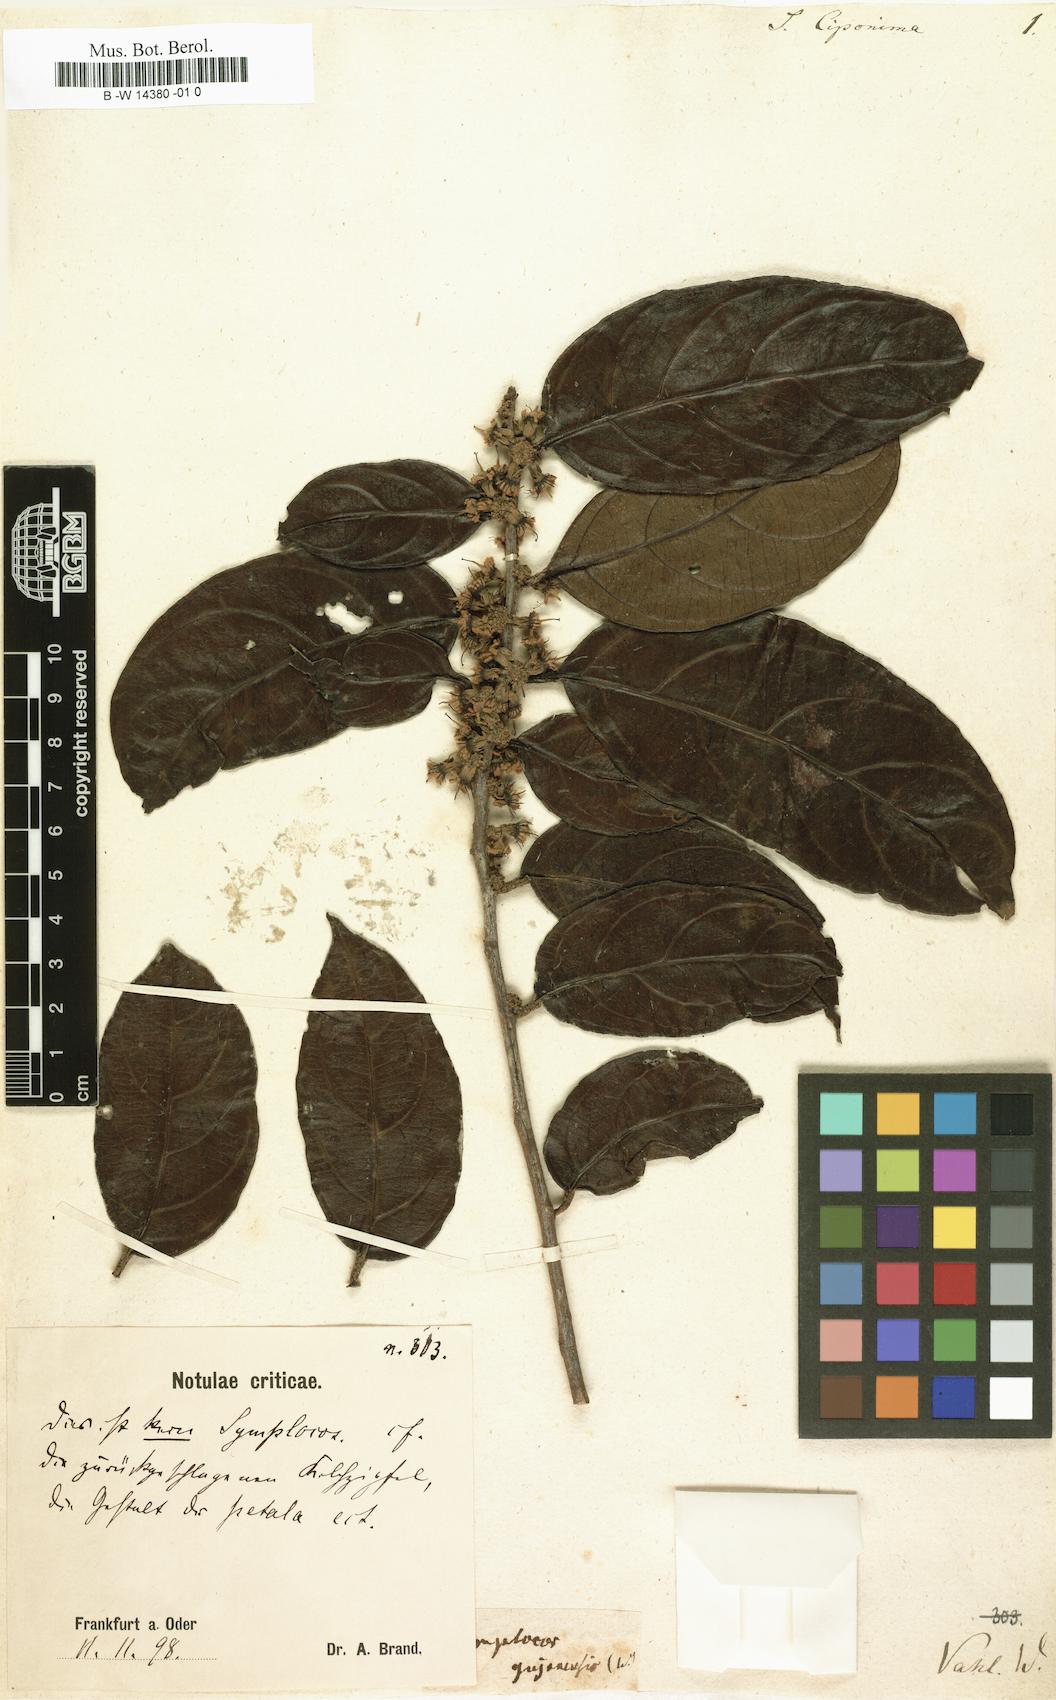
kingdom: Plantae
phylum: Tracheophyta
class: Magnoliopsida
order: Ericales
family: Symplocaceae
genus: Symplocos
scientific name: Symplocos guianensis
